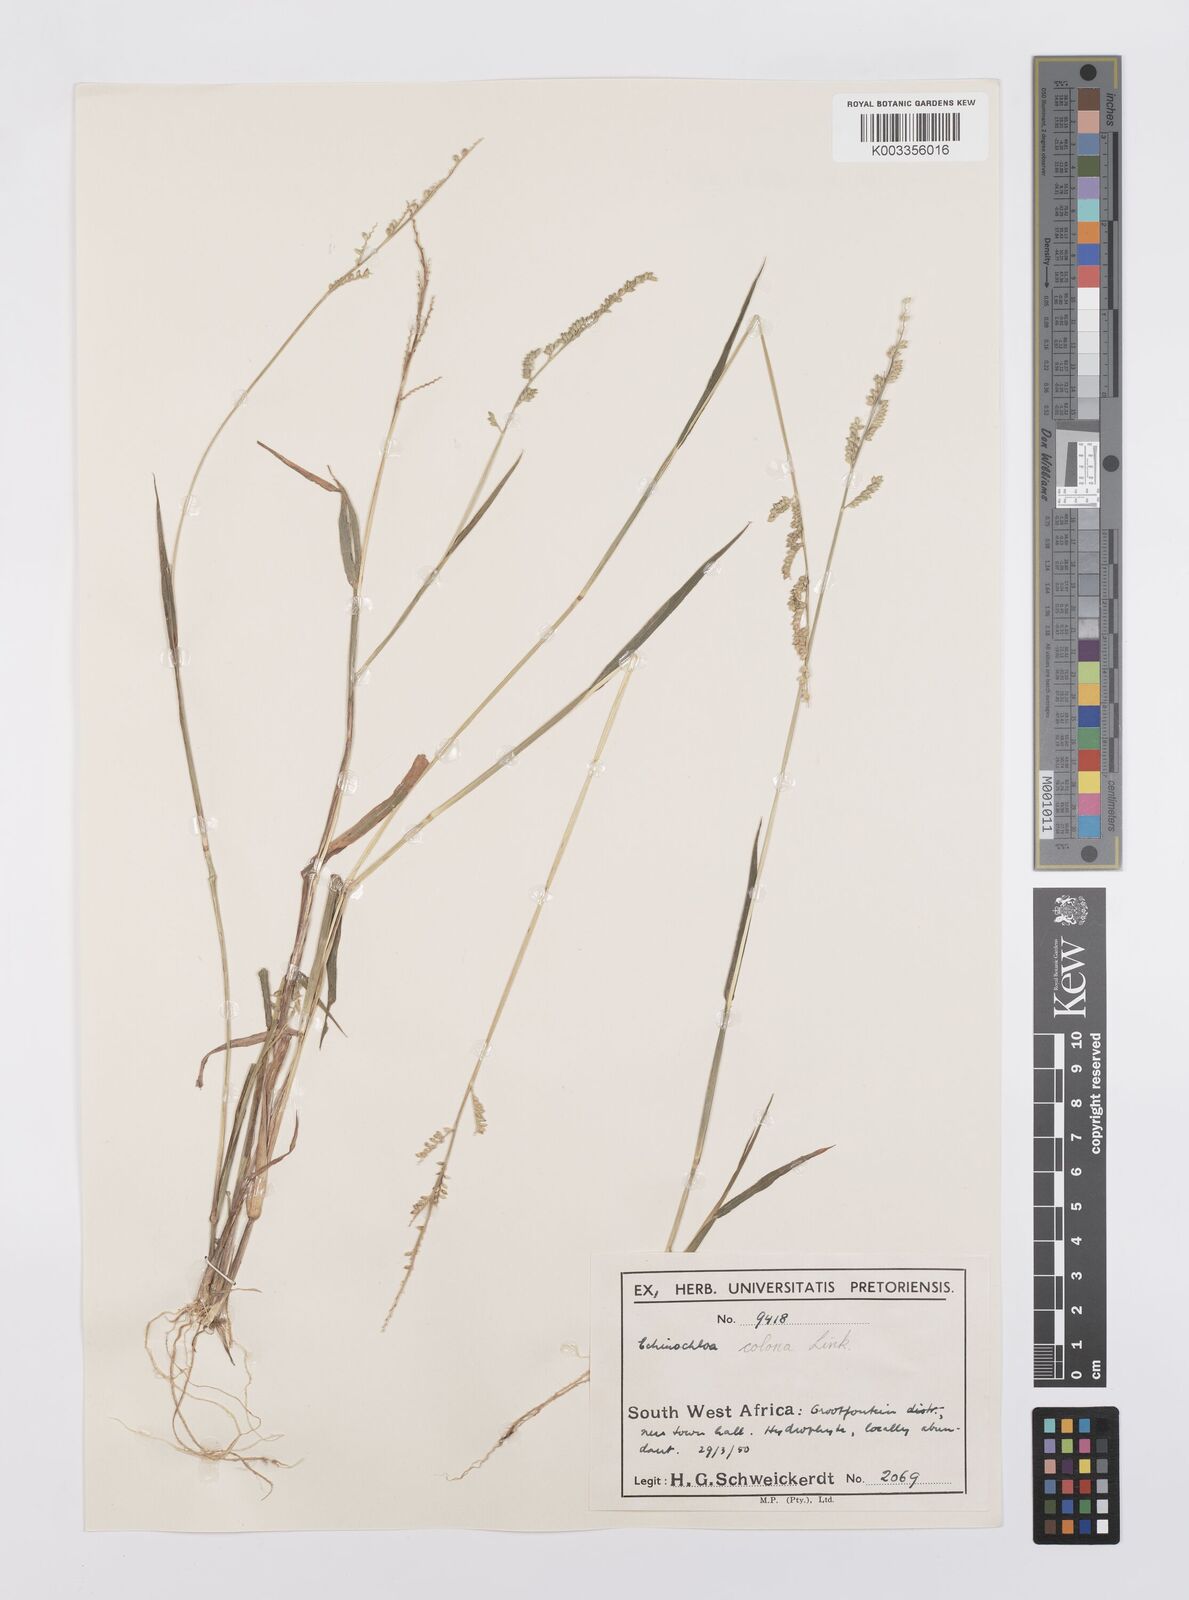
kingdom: Plantae
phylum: Tracheophyta
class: Liliopsida
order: Poales
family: Poaceae
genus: Echinochloa
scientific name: Echinochloa colonum
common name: Jungle rice
